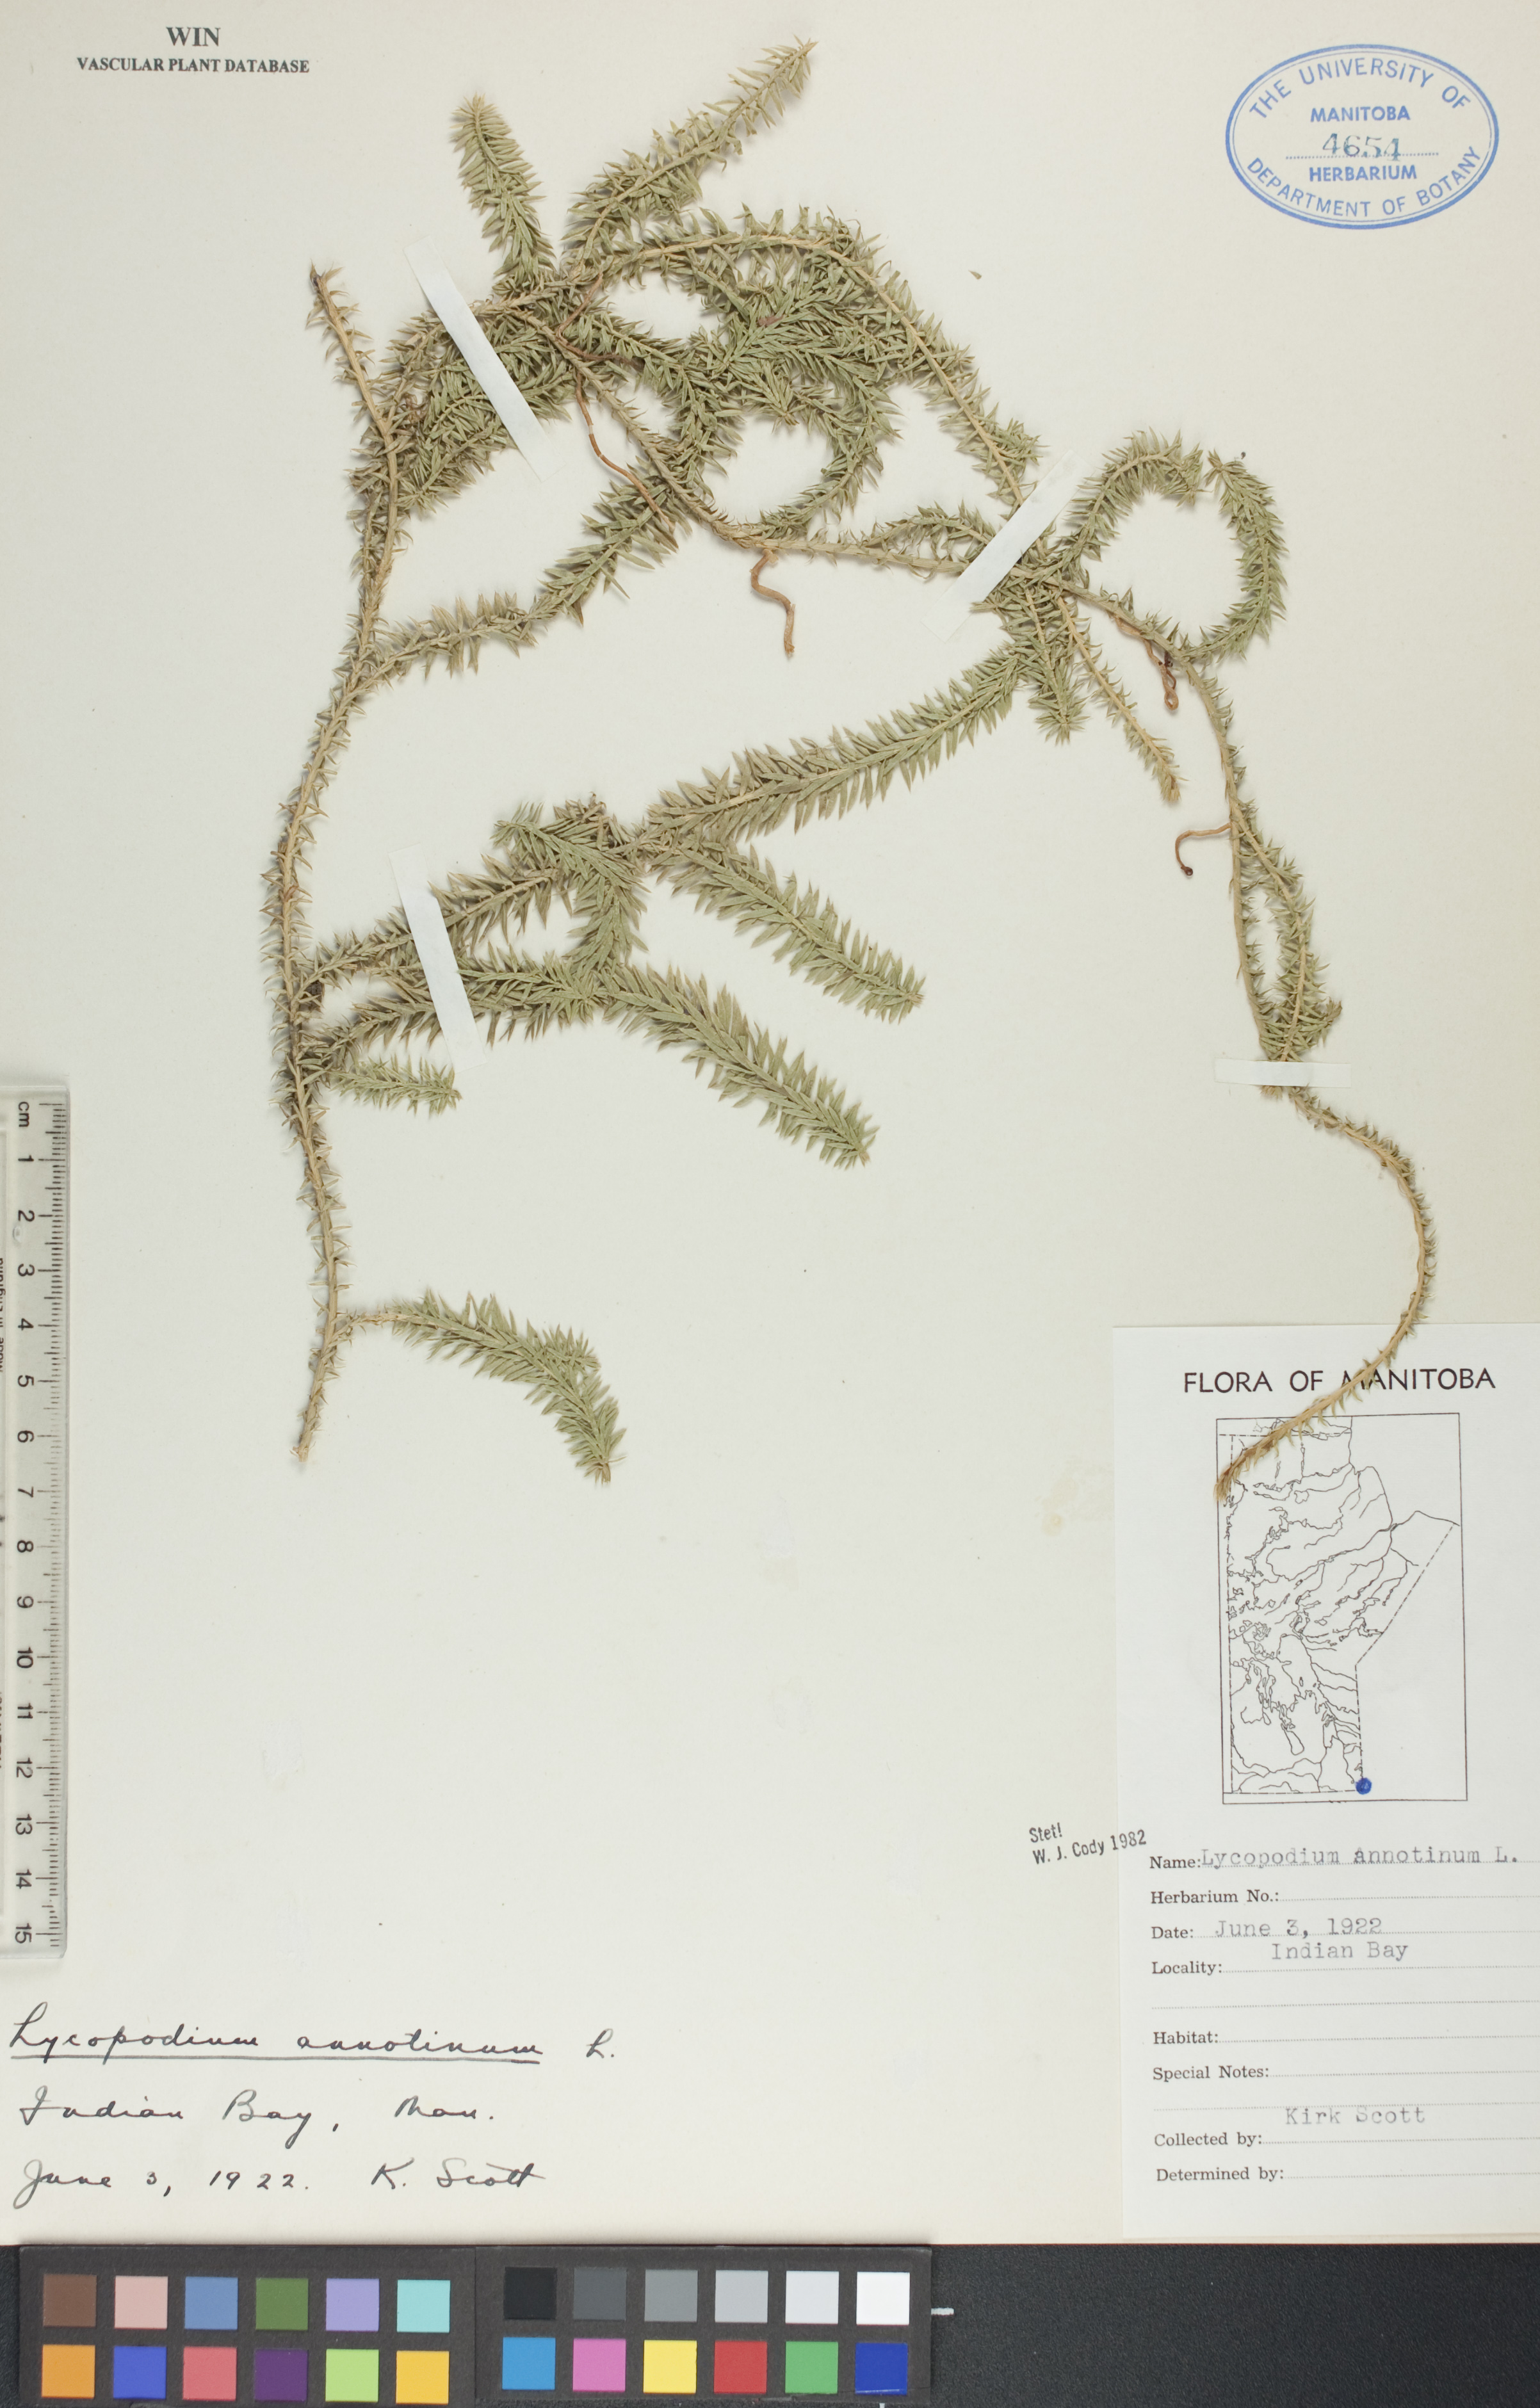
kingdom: Plantae
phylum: Tracheophyta
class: Lycopodiopsida
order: Lycopodiales
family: Lycopodiaceae
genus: Spinulum
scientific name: Spinulum annotinum
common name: Interrupted club-moss
